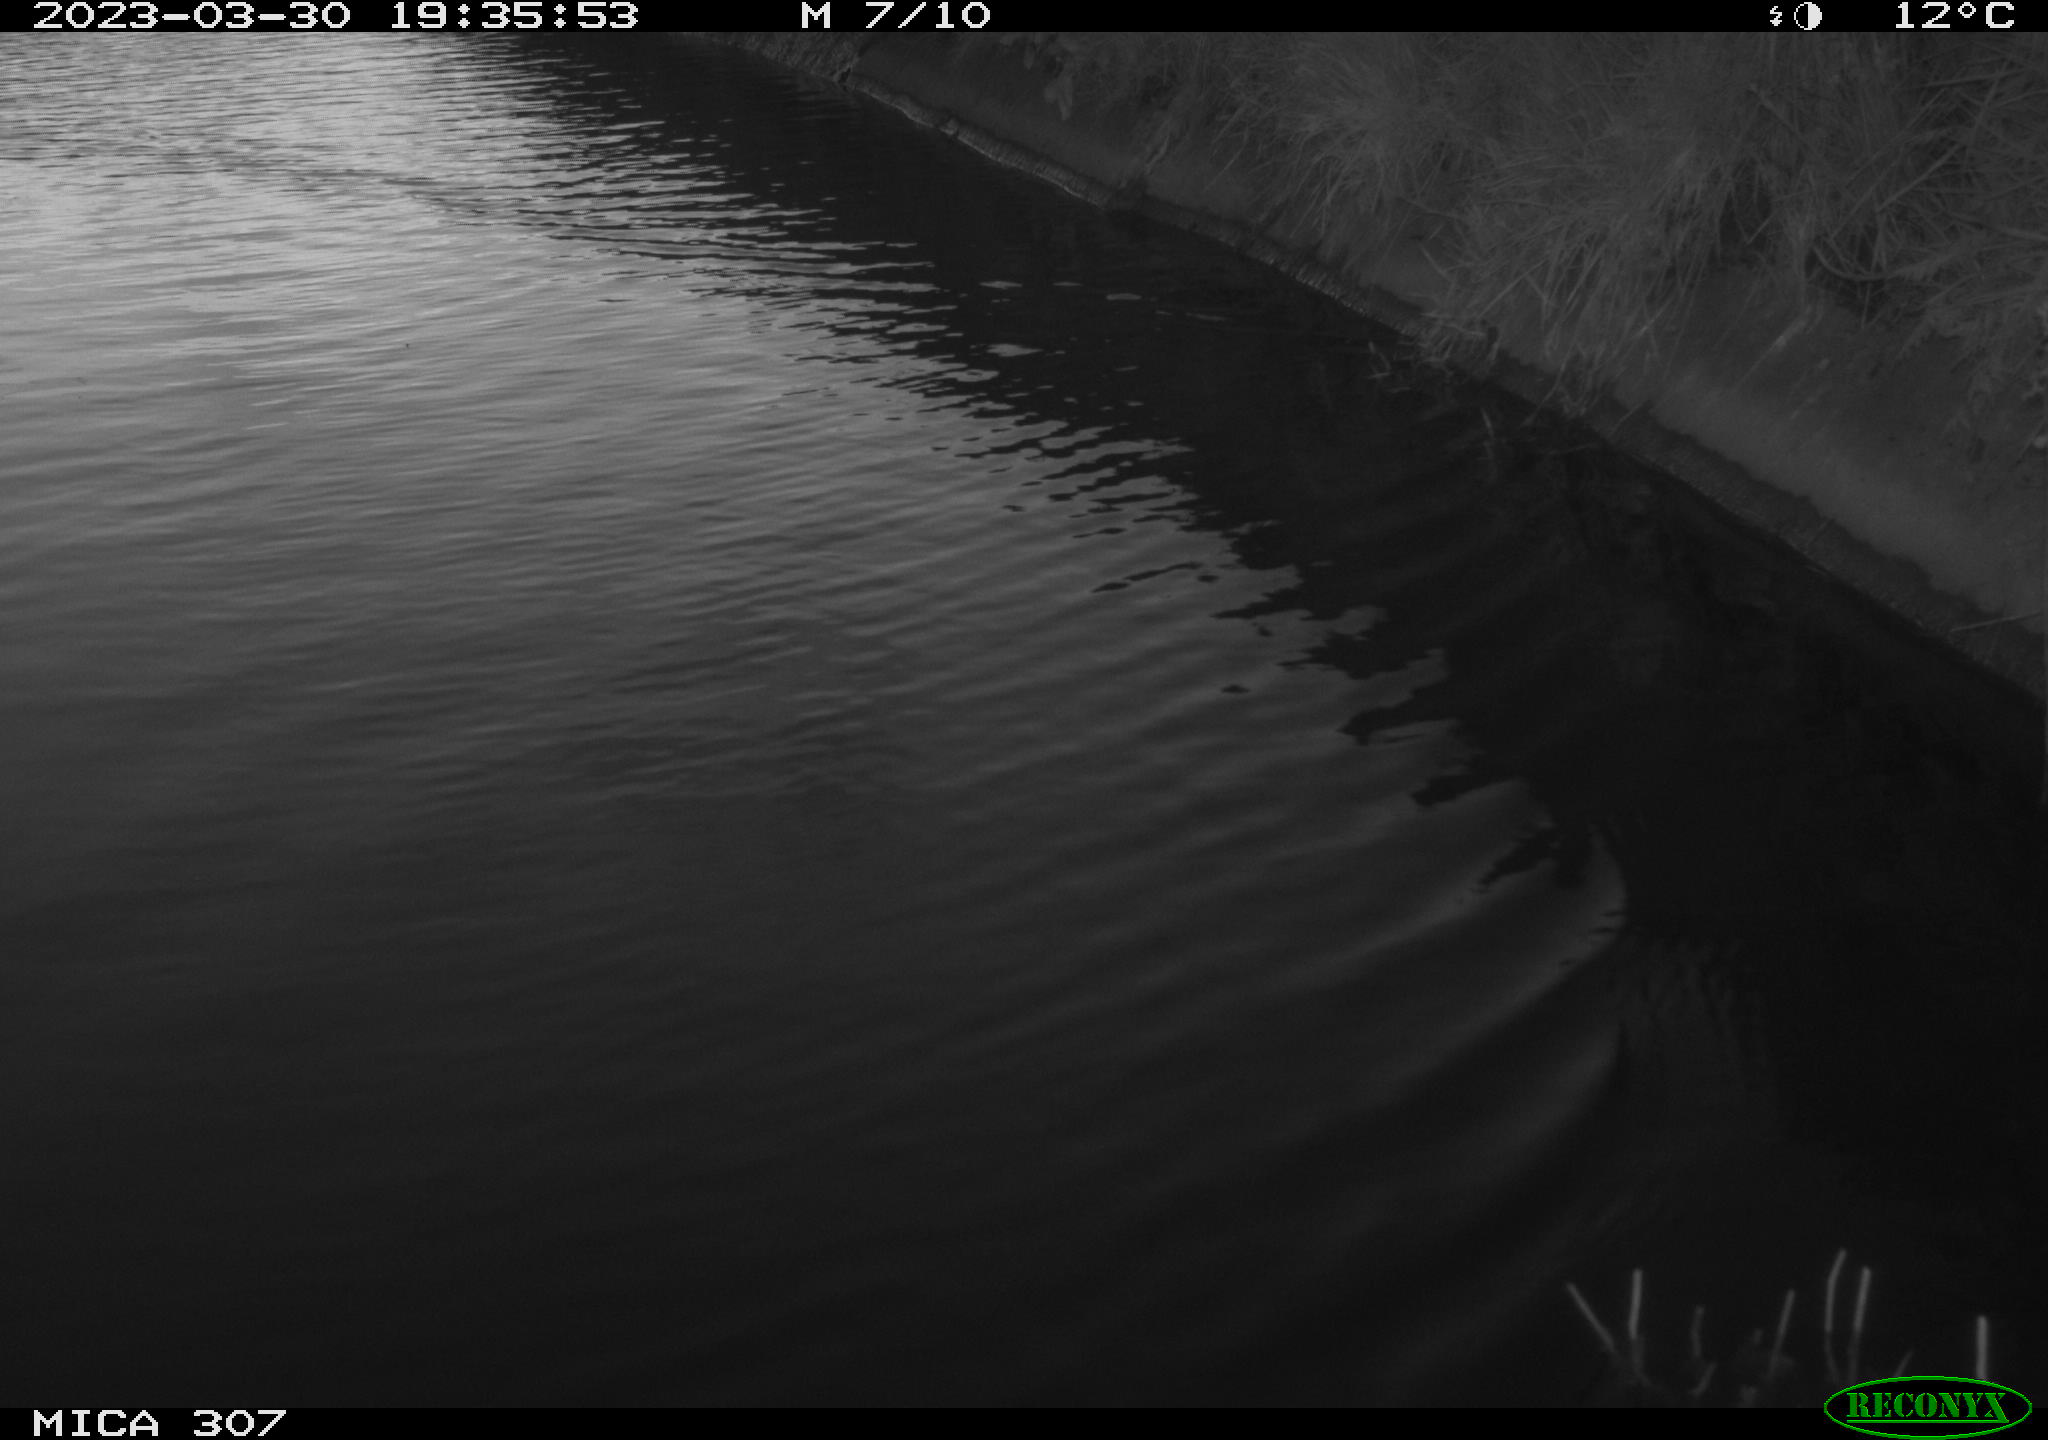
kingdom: Animalia
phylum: Chordata
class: Aves
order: Anseriformes
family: Anatidae
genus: Anas
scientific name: Anas
